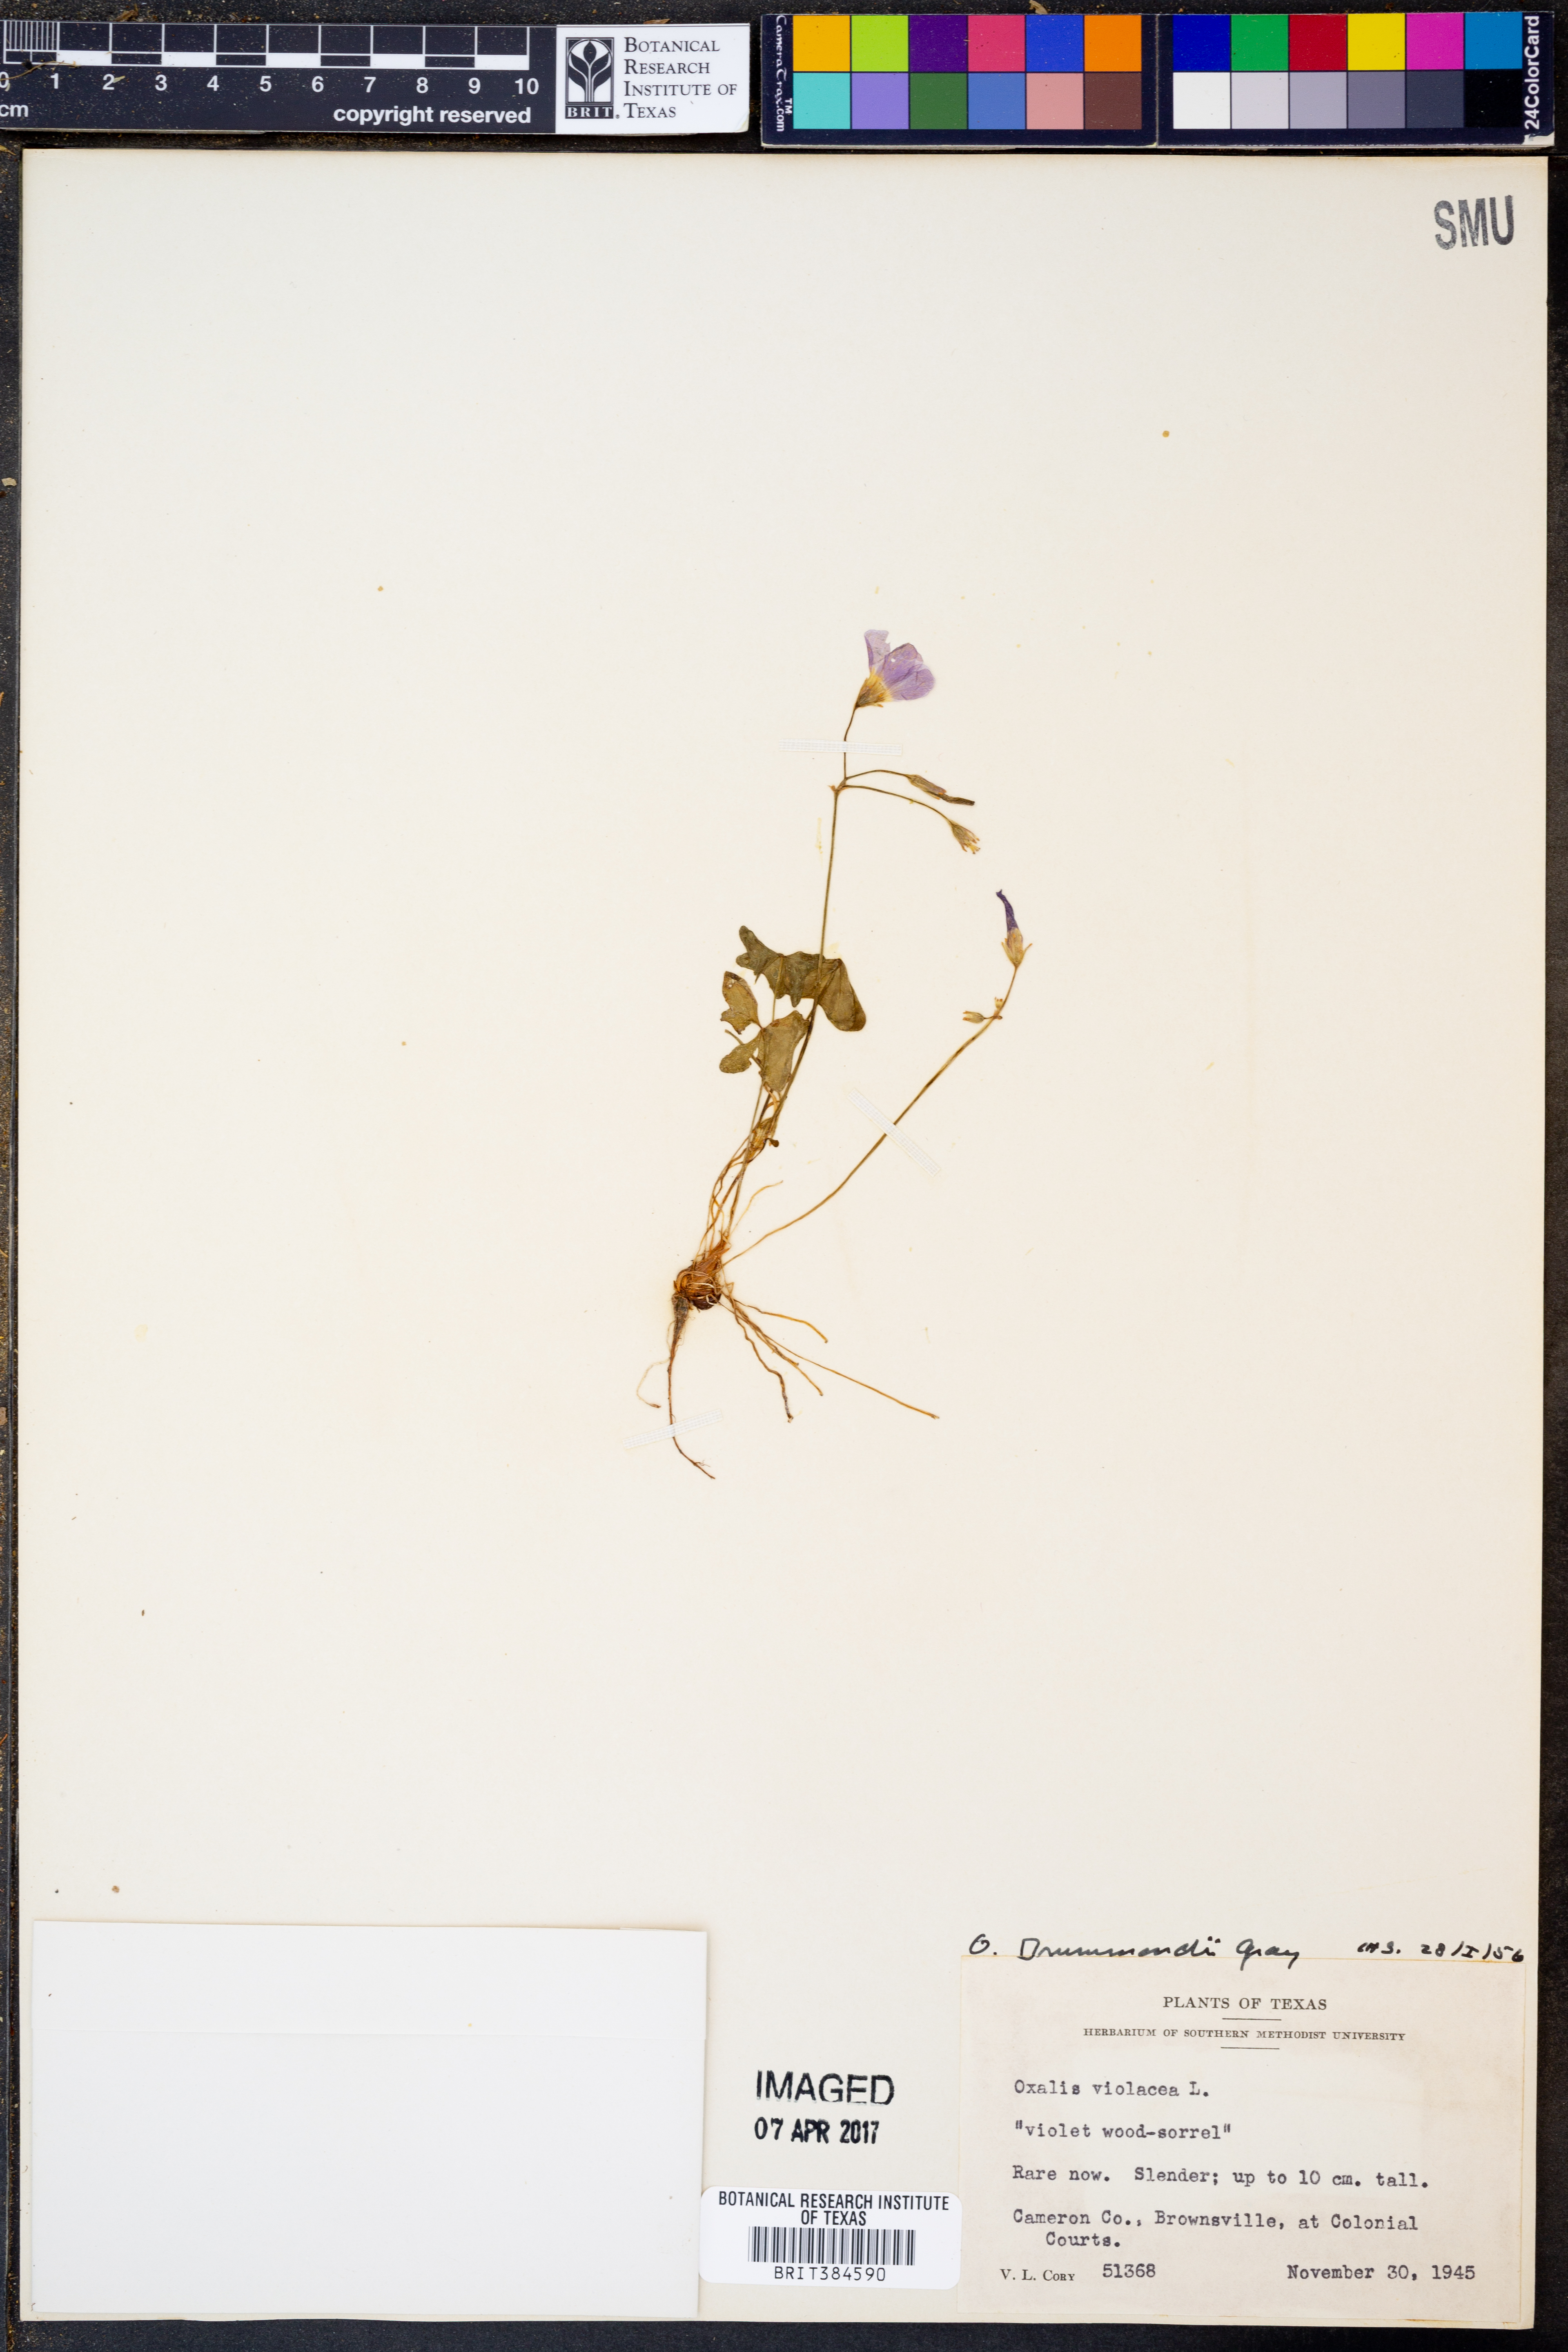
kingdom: Plantae
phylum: Tracheophyta
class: Magnoliopsida
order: Oxalidales
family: Oxalidaceae
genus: Oxalis
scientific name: Oxalis drummondii
